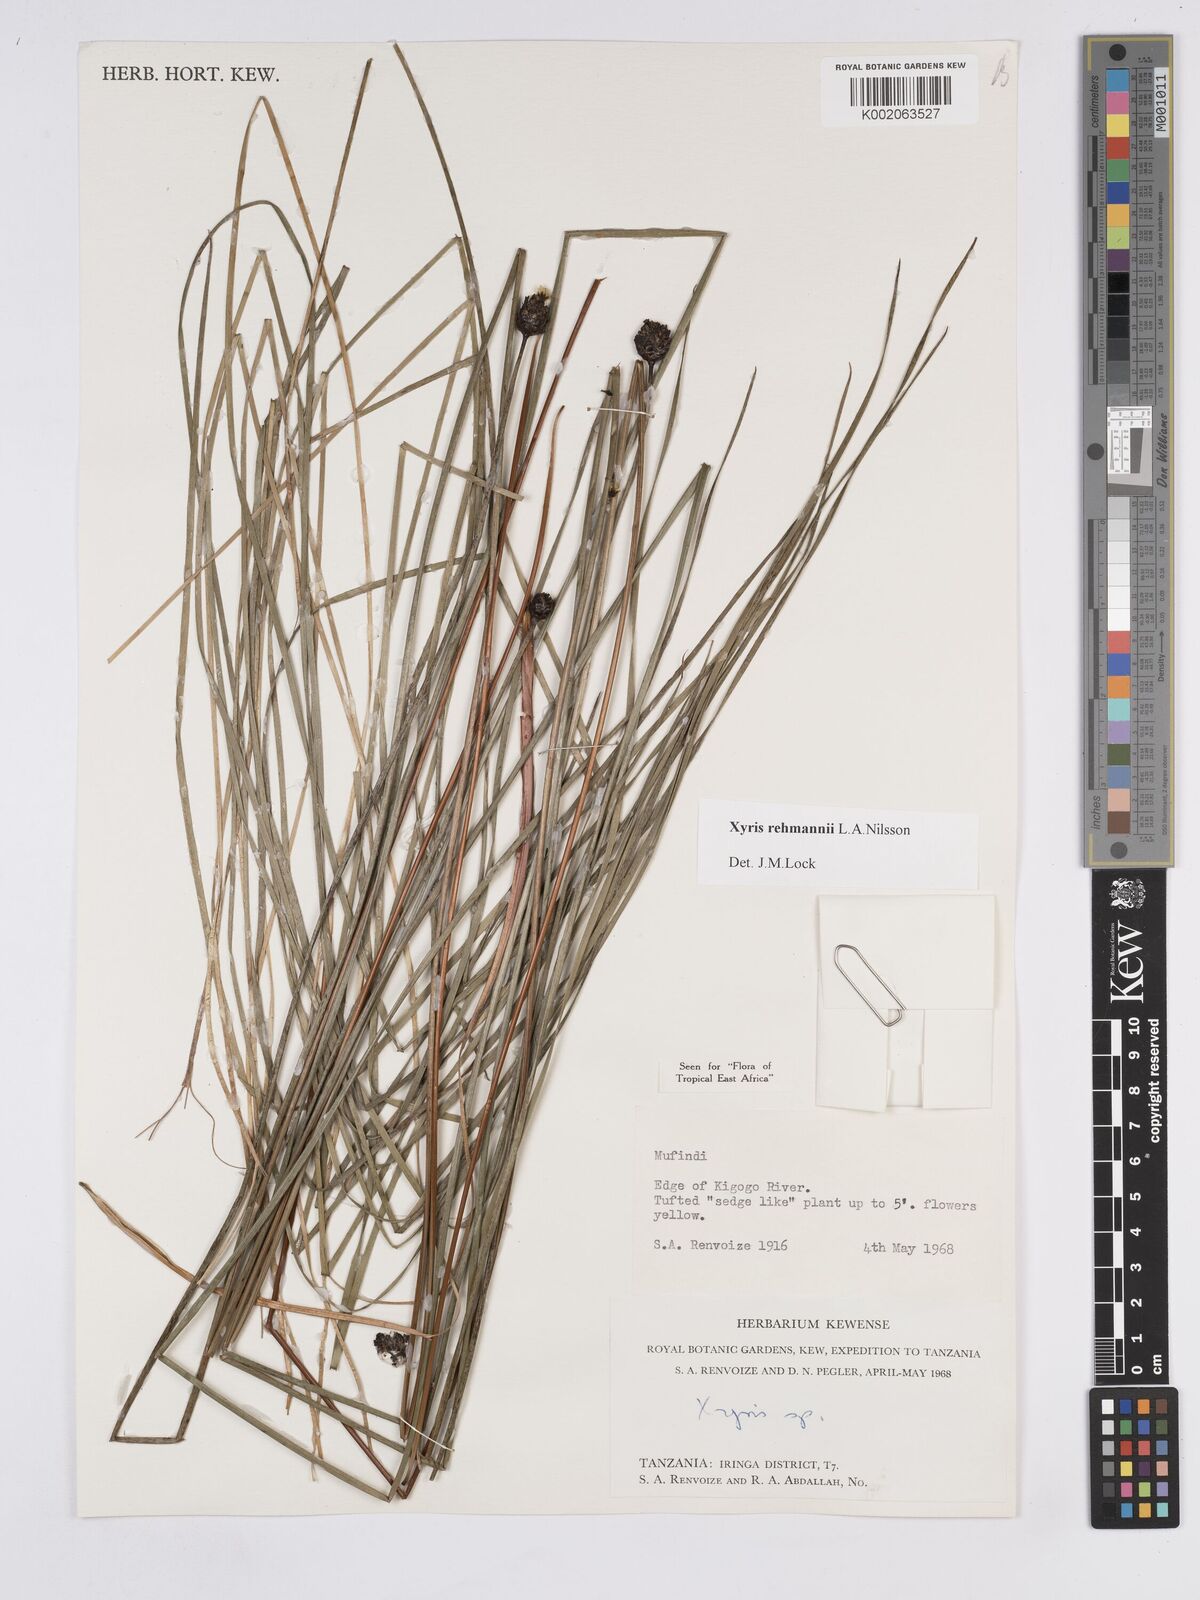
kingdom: Plantae
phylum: Tracheophyta
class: Liliopsida
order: Poales
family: Xyridaceae
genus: Xyris
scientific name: Xyris rehmannii
